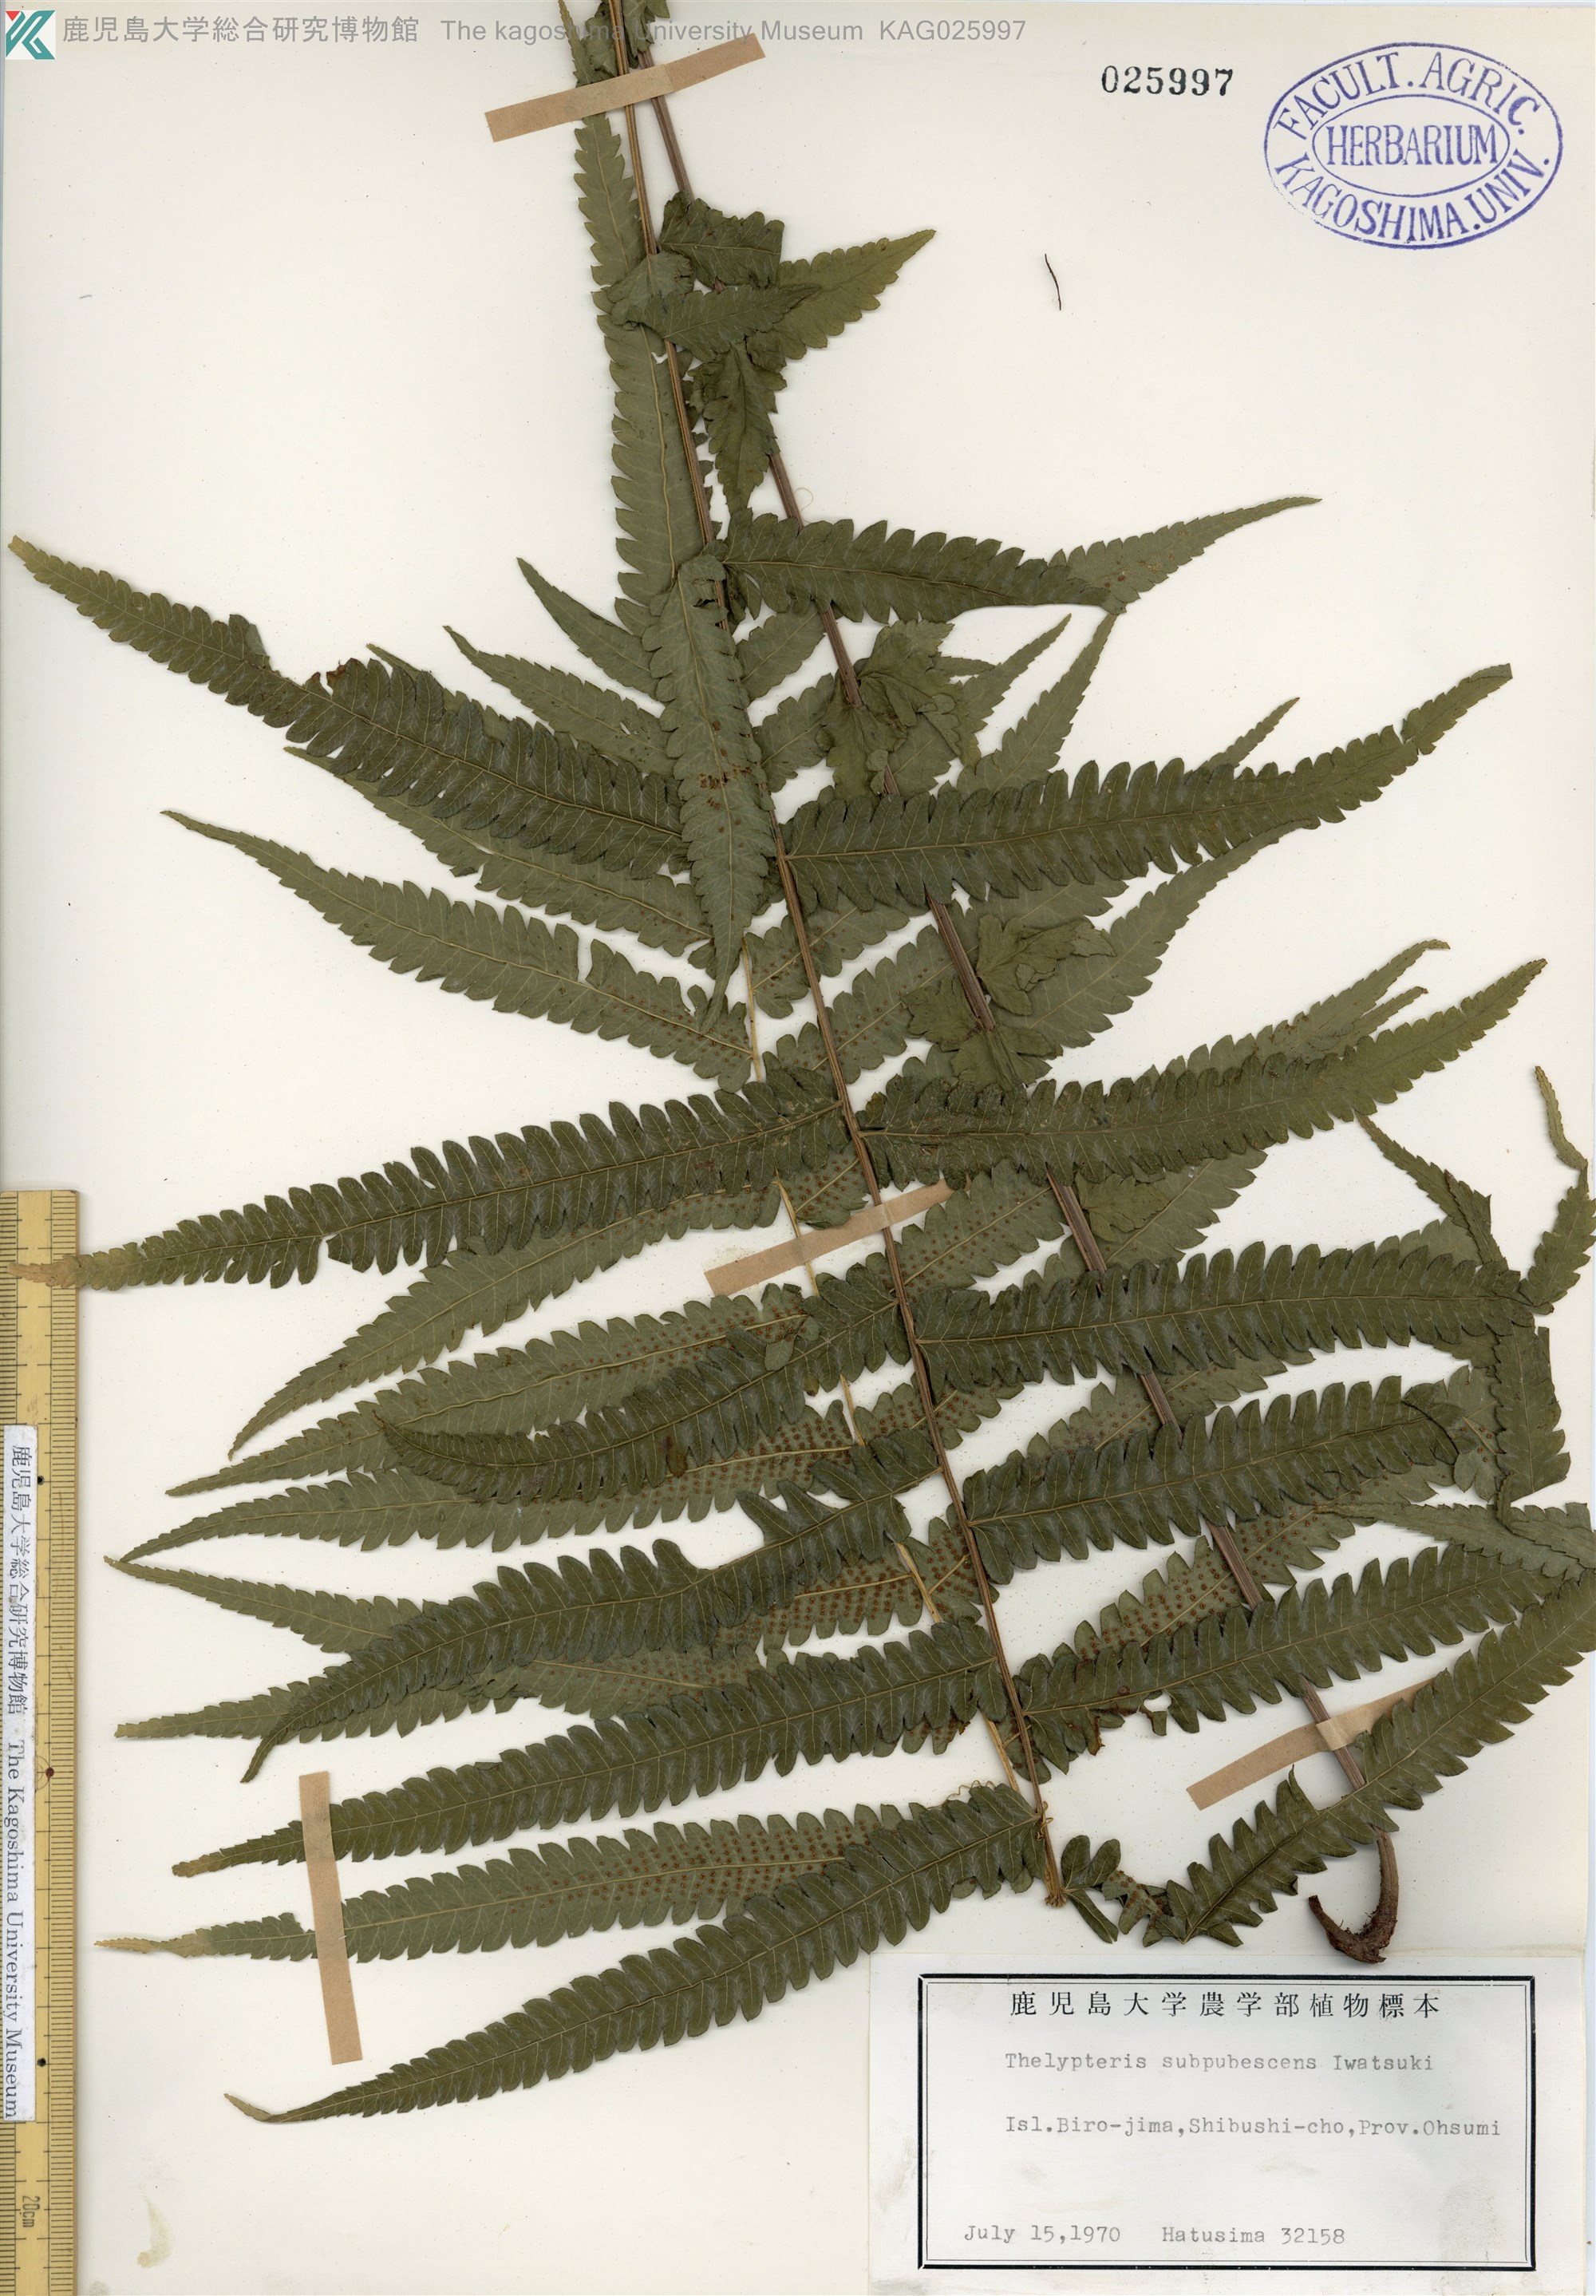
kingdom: Plantae
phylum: Tracheophyta
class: Polypodiopsida
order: Polypodiales
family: Thelypteridaceae
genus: Christella
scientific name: Christella jaculosa
